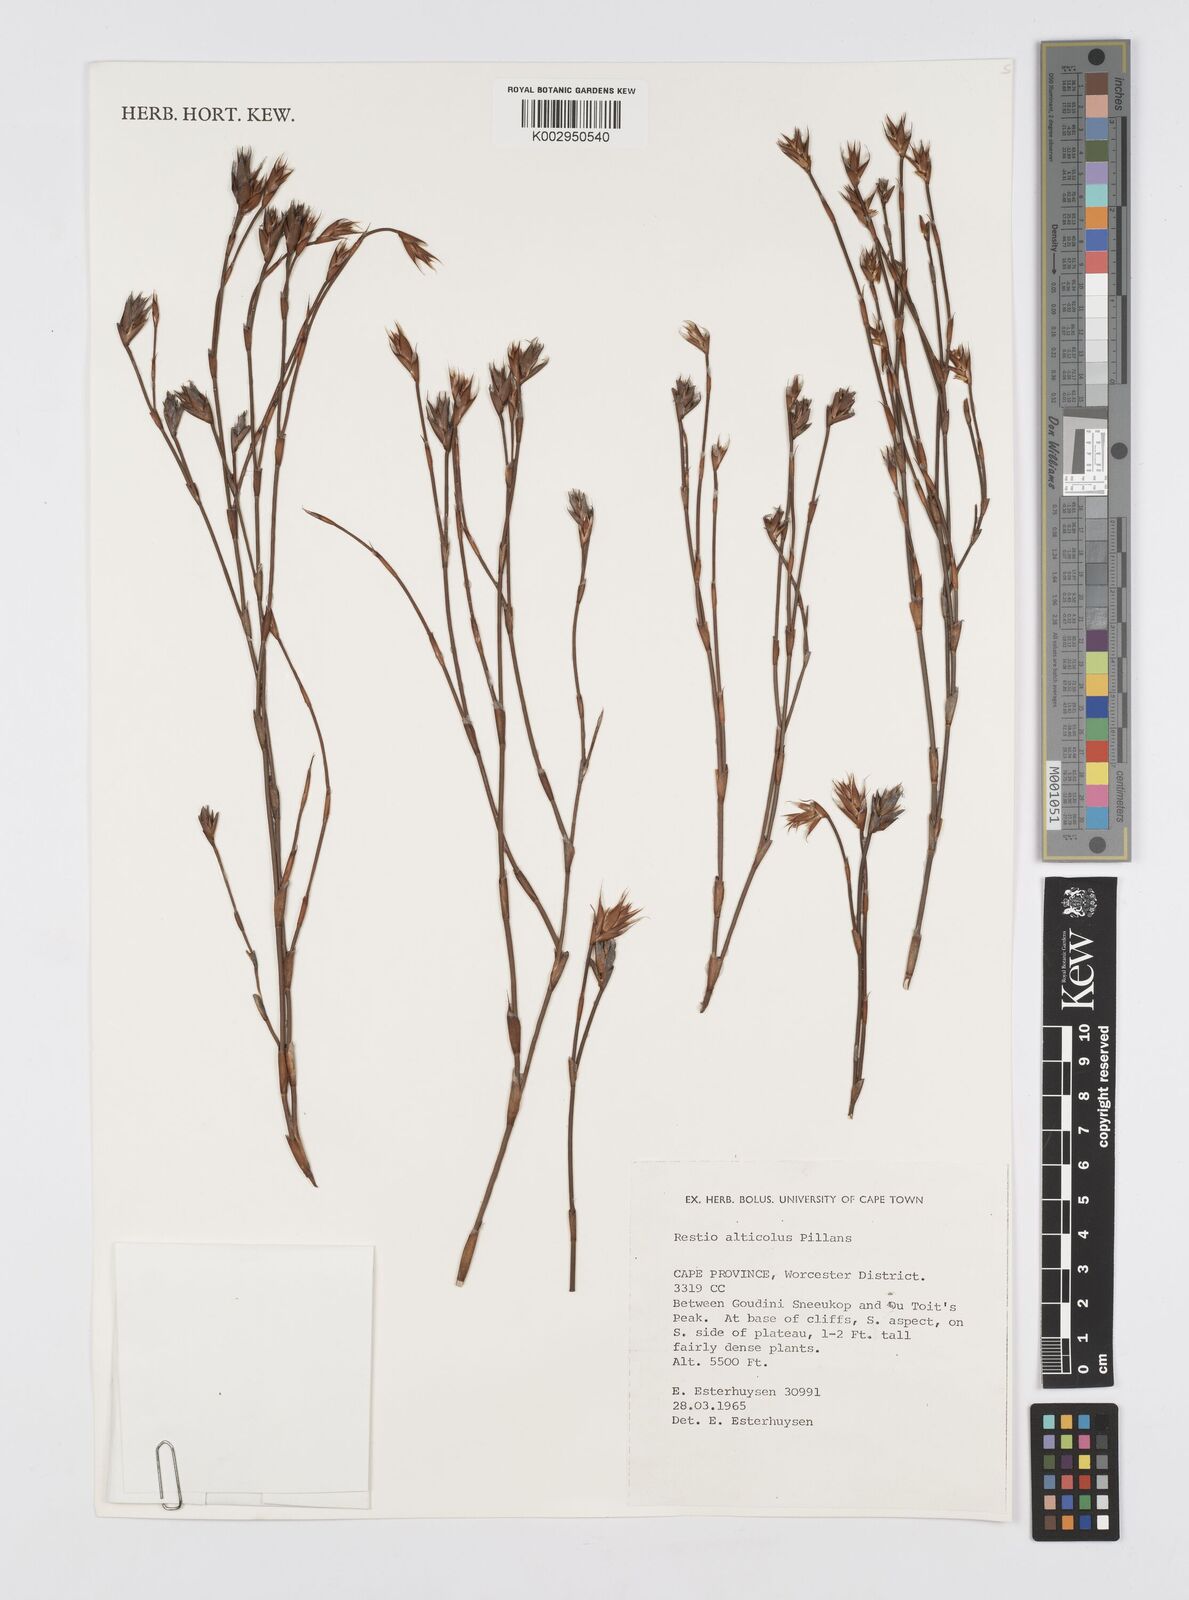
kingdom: Plantae
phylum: Tracheophyta
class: Liliopsida
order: Poales
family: Restionaceae
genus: Restio
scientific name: Restio alticola
